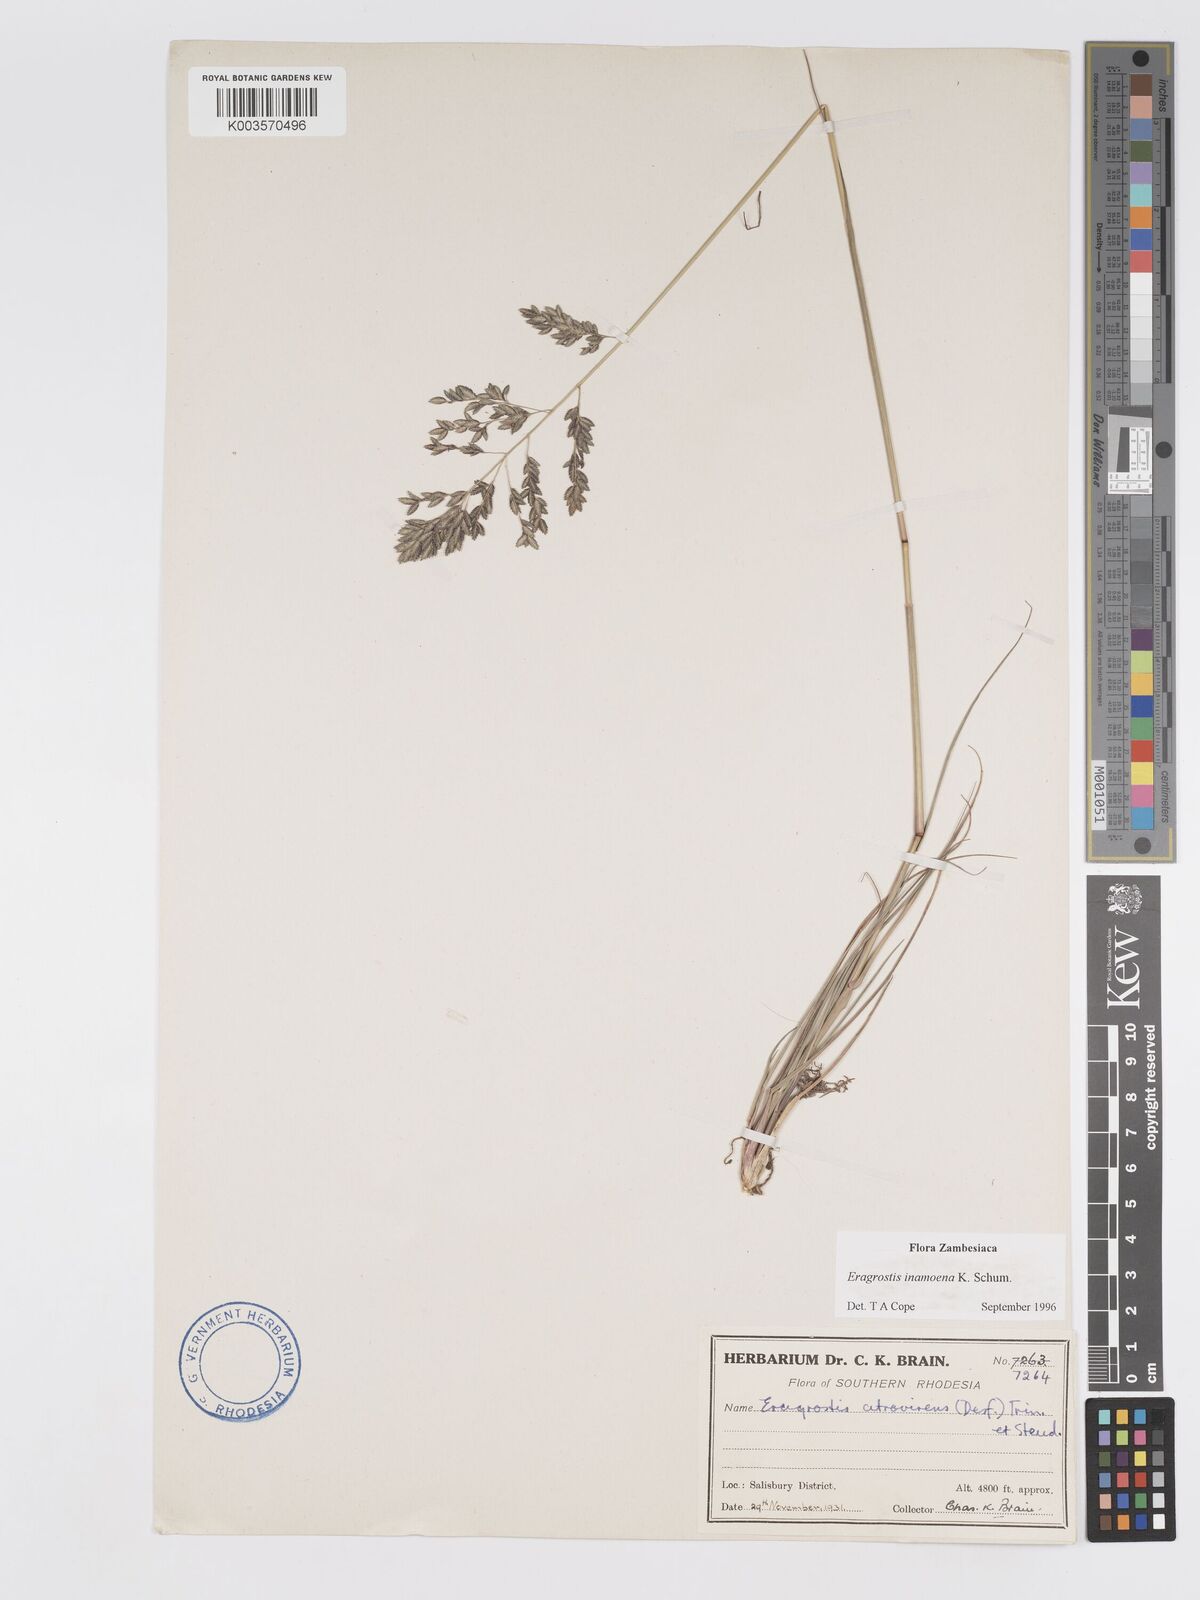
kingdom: Plantae
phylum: Tracheophyta
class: Liliopsida
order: Poales
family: Poaceae
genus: Eragrostis
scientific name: Eragrostis inamoena
